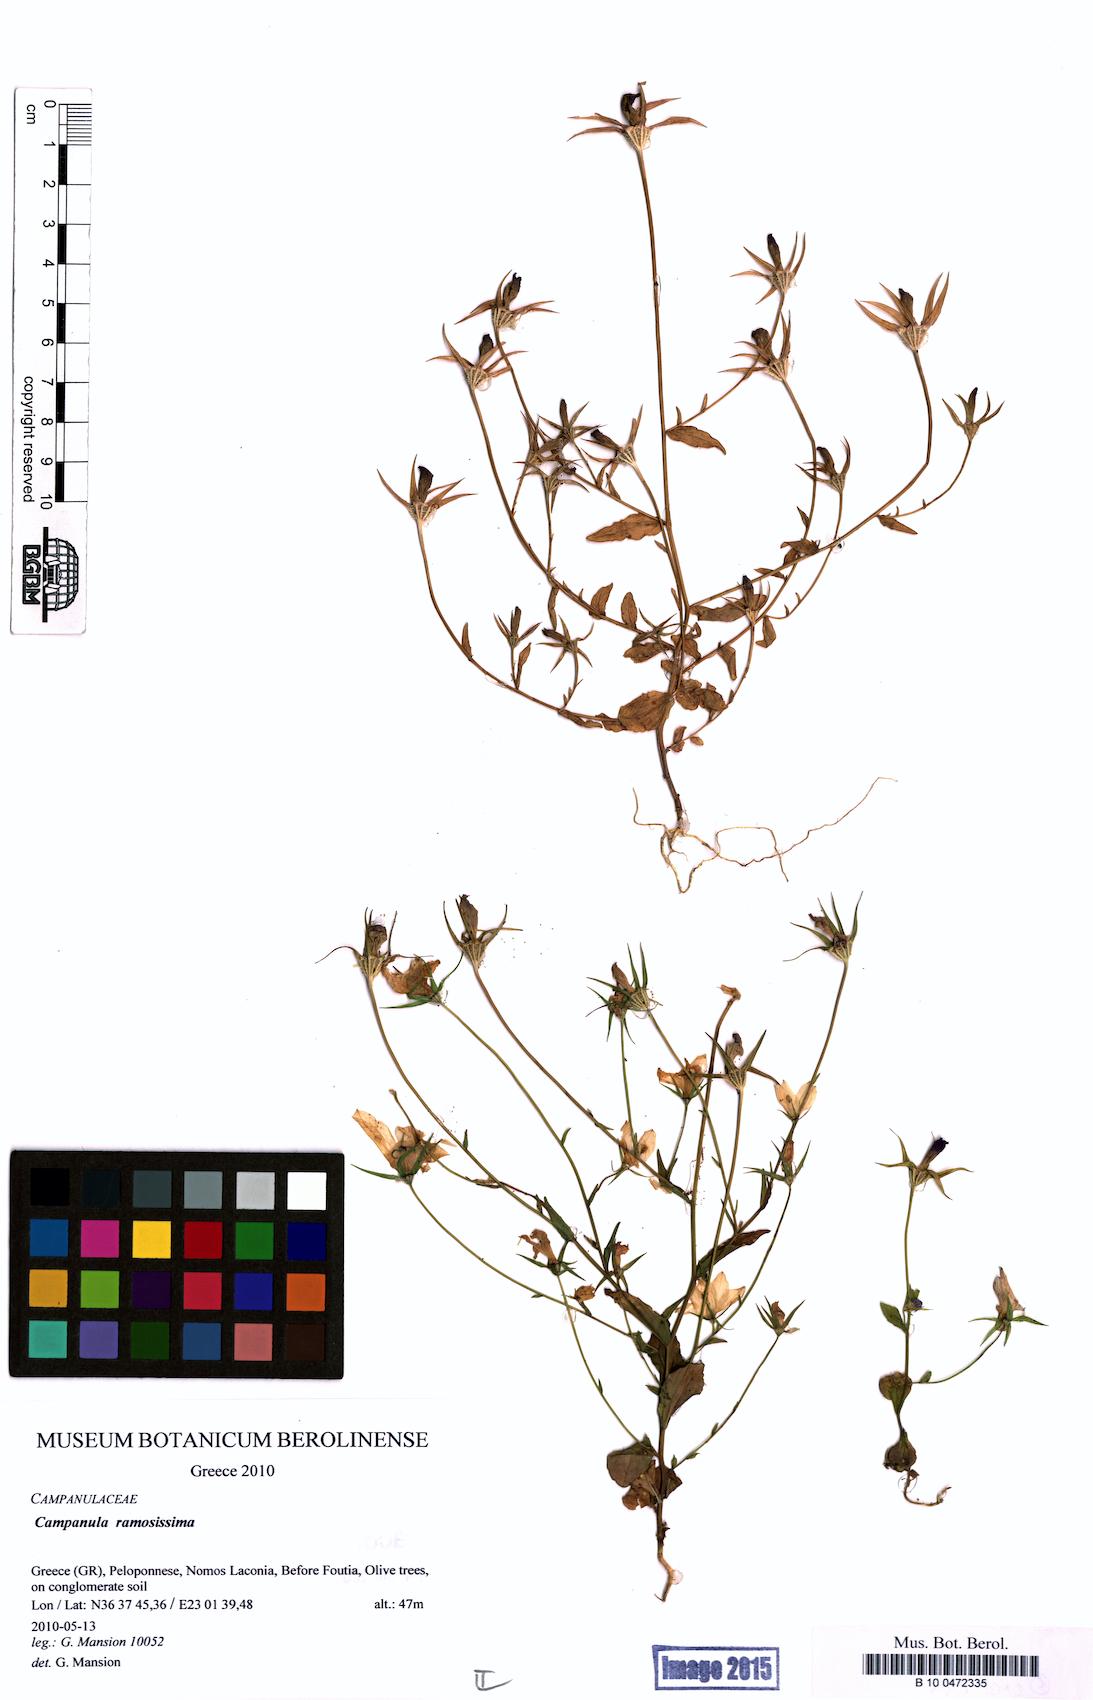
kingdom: Plantae
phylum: Tracheophyta
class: Magnoliopsida
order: Asterales
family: Campanulaceae
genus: Campanula
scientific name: Campanula ramosissima
